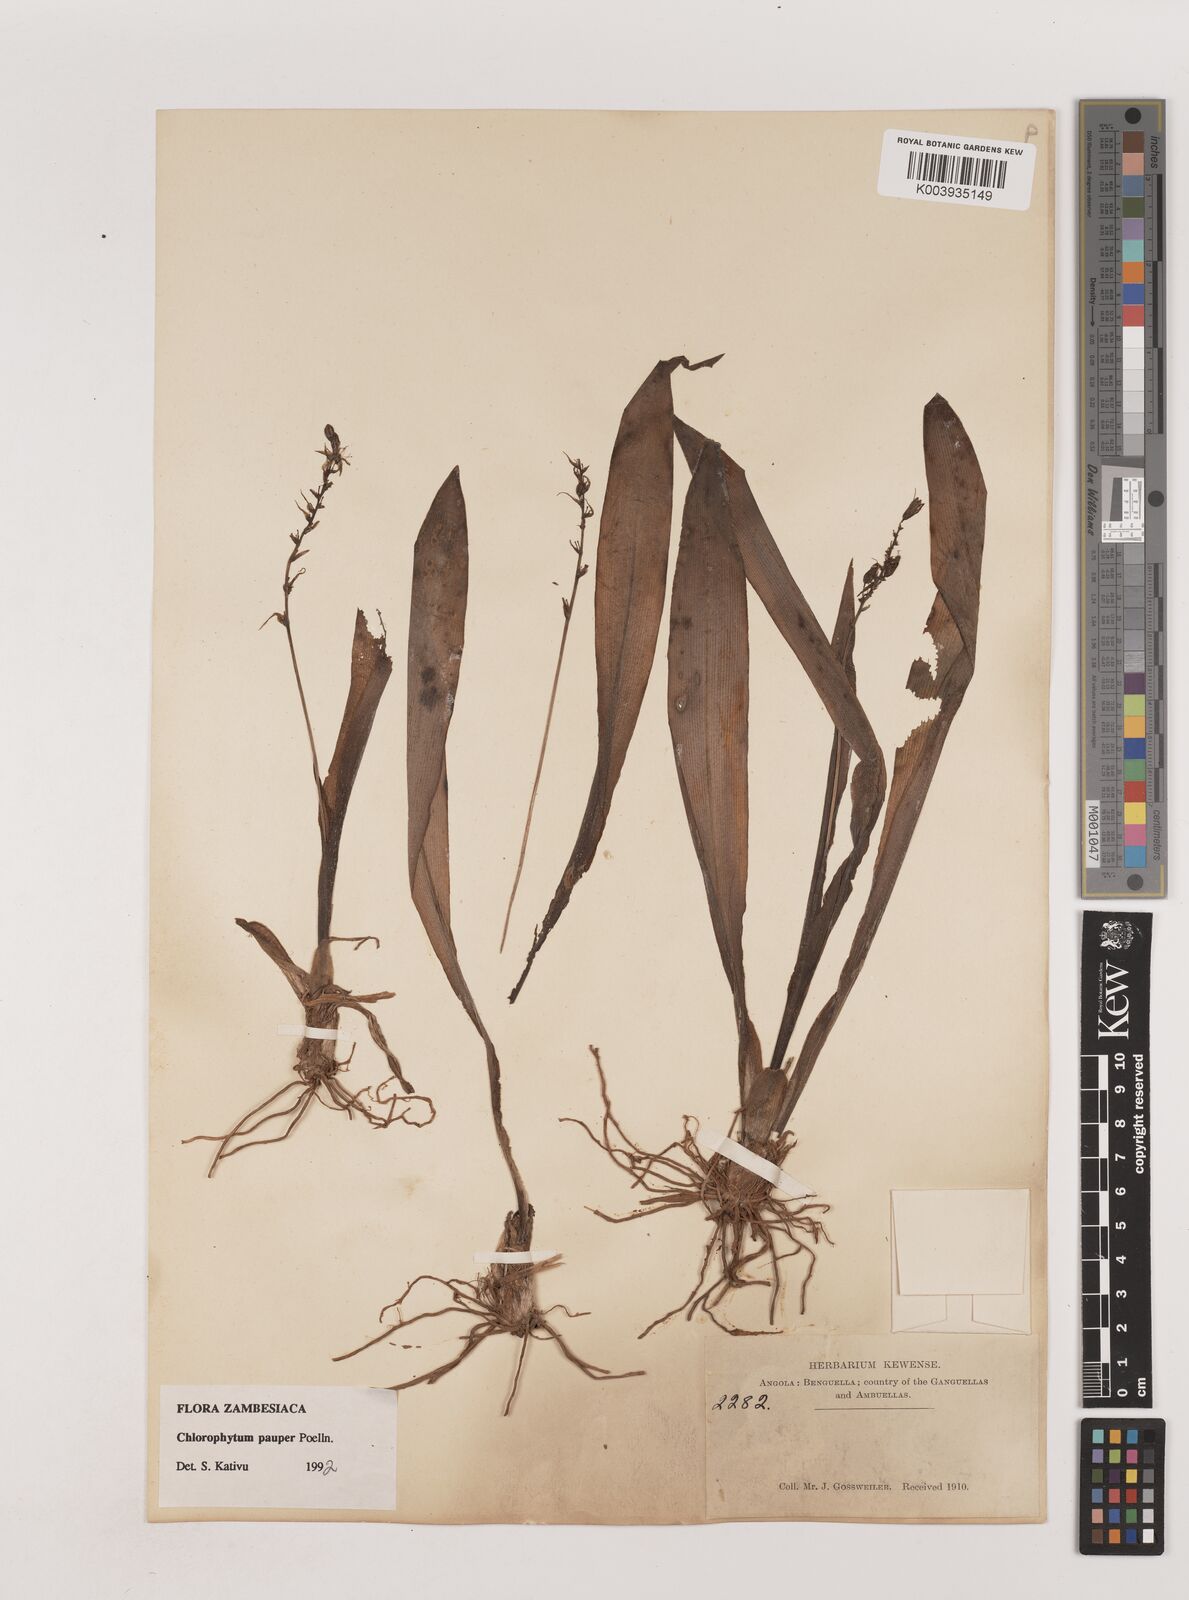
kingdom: Plantae
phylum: Tracheophyta
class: Liliopsida
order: Asparagales
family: Asparagaceae
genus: Chlorophytum
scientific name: Chlorophytum pauper
